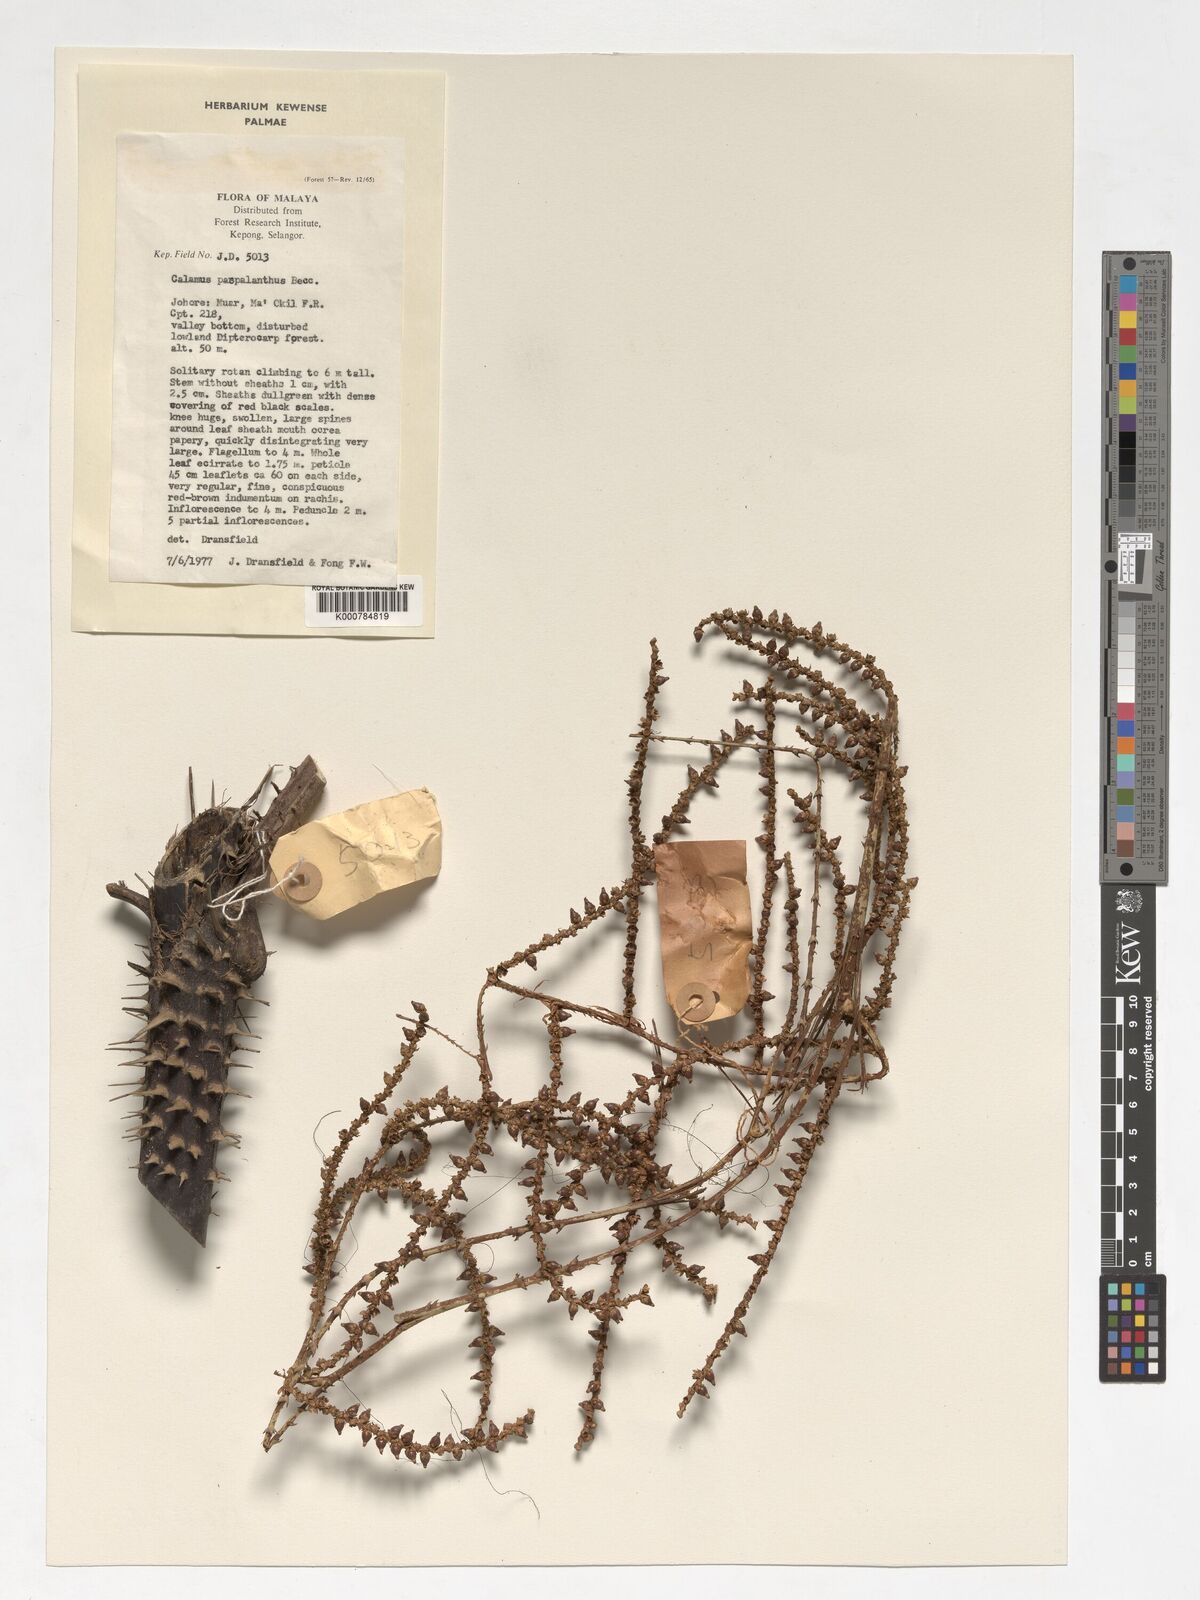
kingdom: Plantae
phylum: Tracheophyta
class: Liliopsida
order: Arecales
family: Arecaceae
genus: Calamus
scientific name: Calamus paspalanthus
